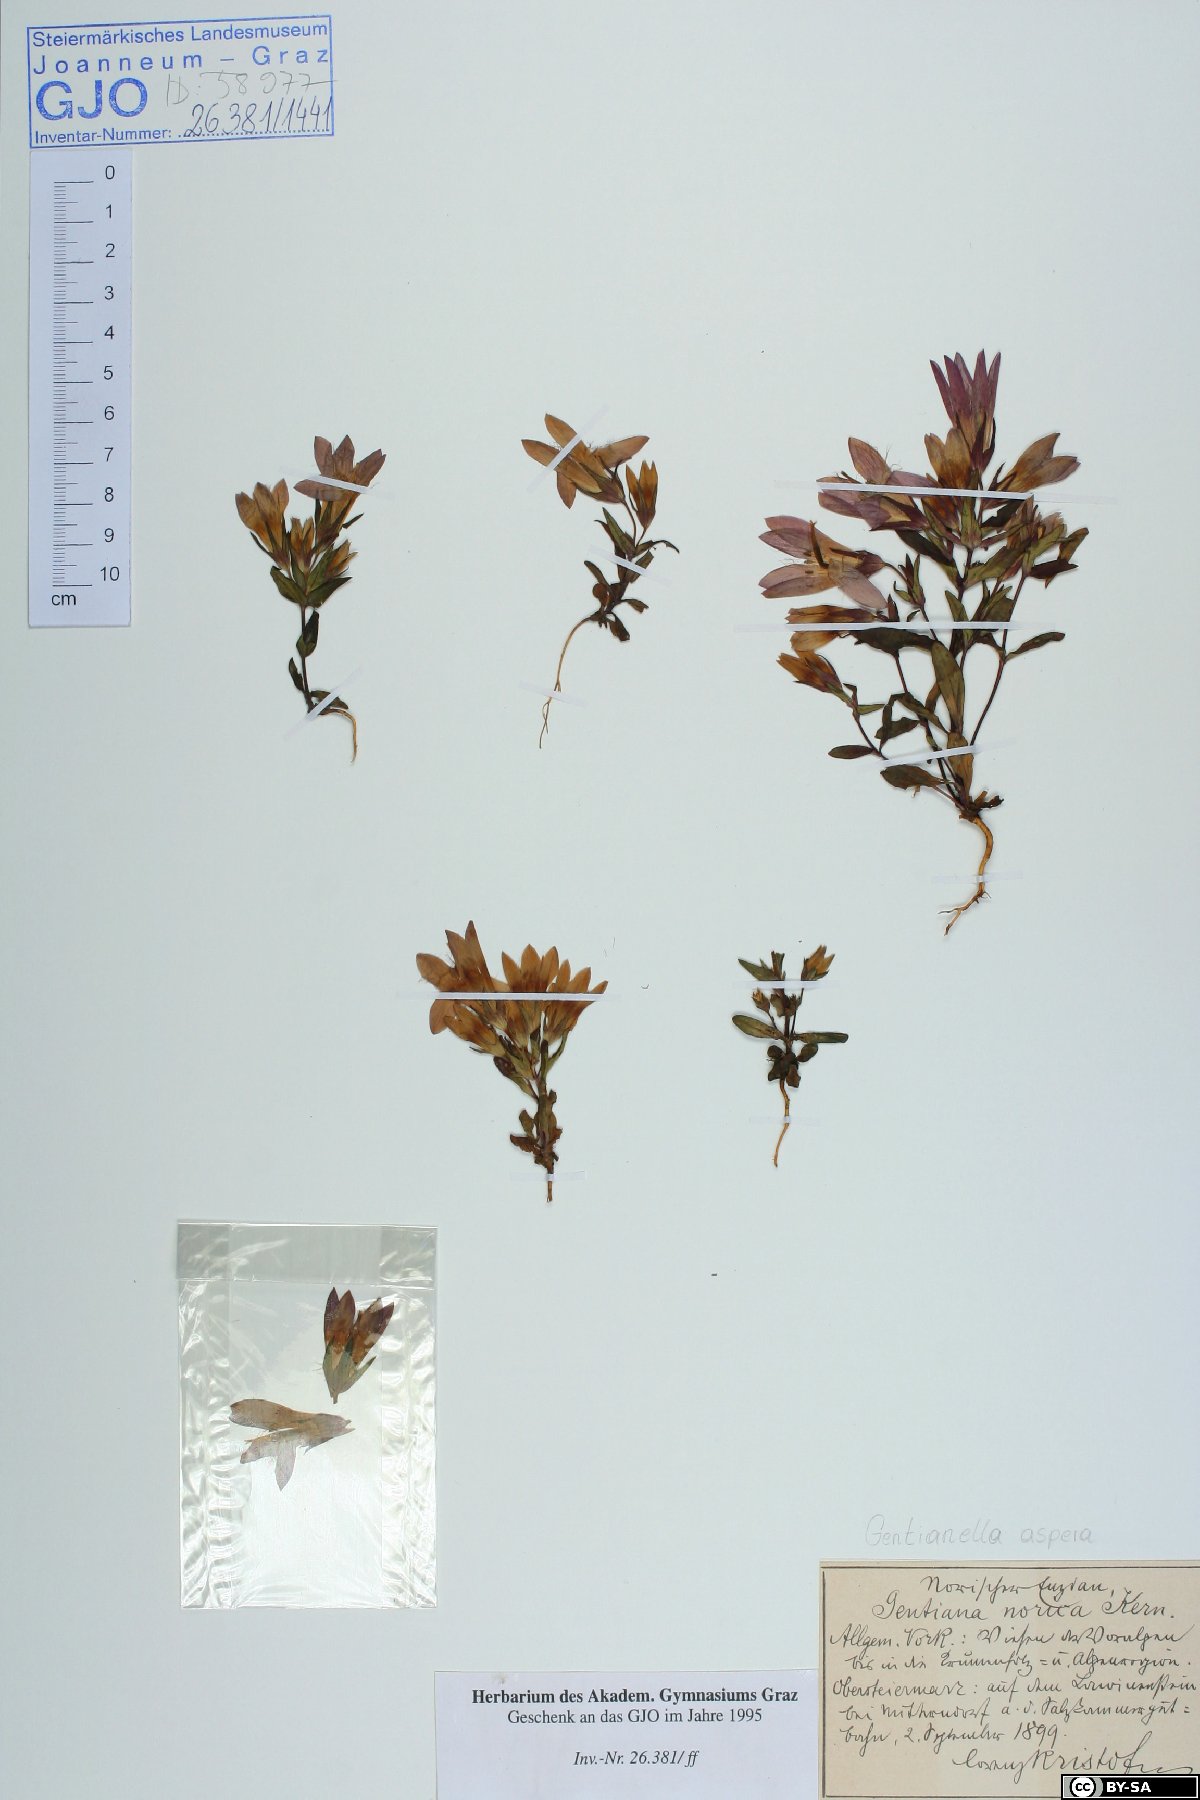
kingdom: Plantae
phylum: Tracheophyta
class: Magnoliopsida
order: Gentianales
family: Gentianaceae
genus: Gentianella
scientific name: Gentianella obtusifolia
